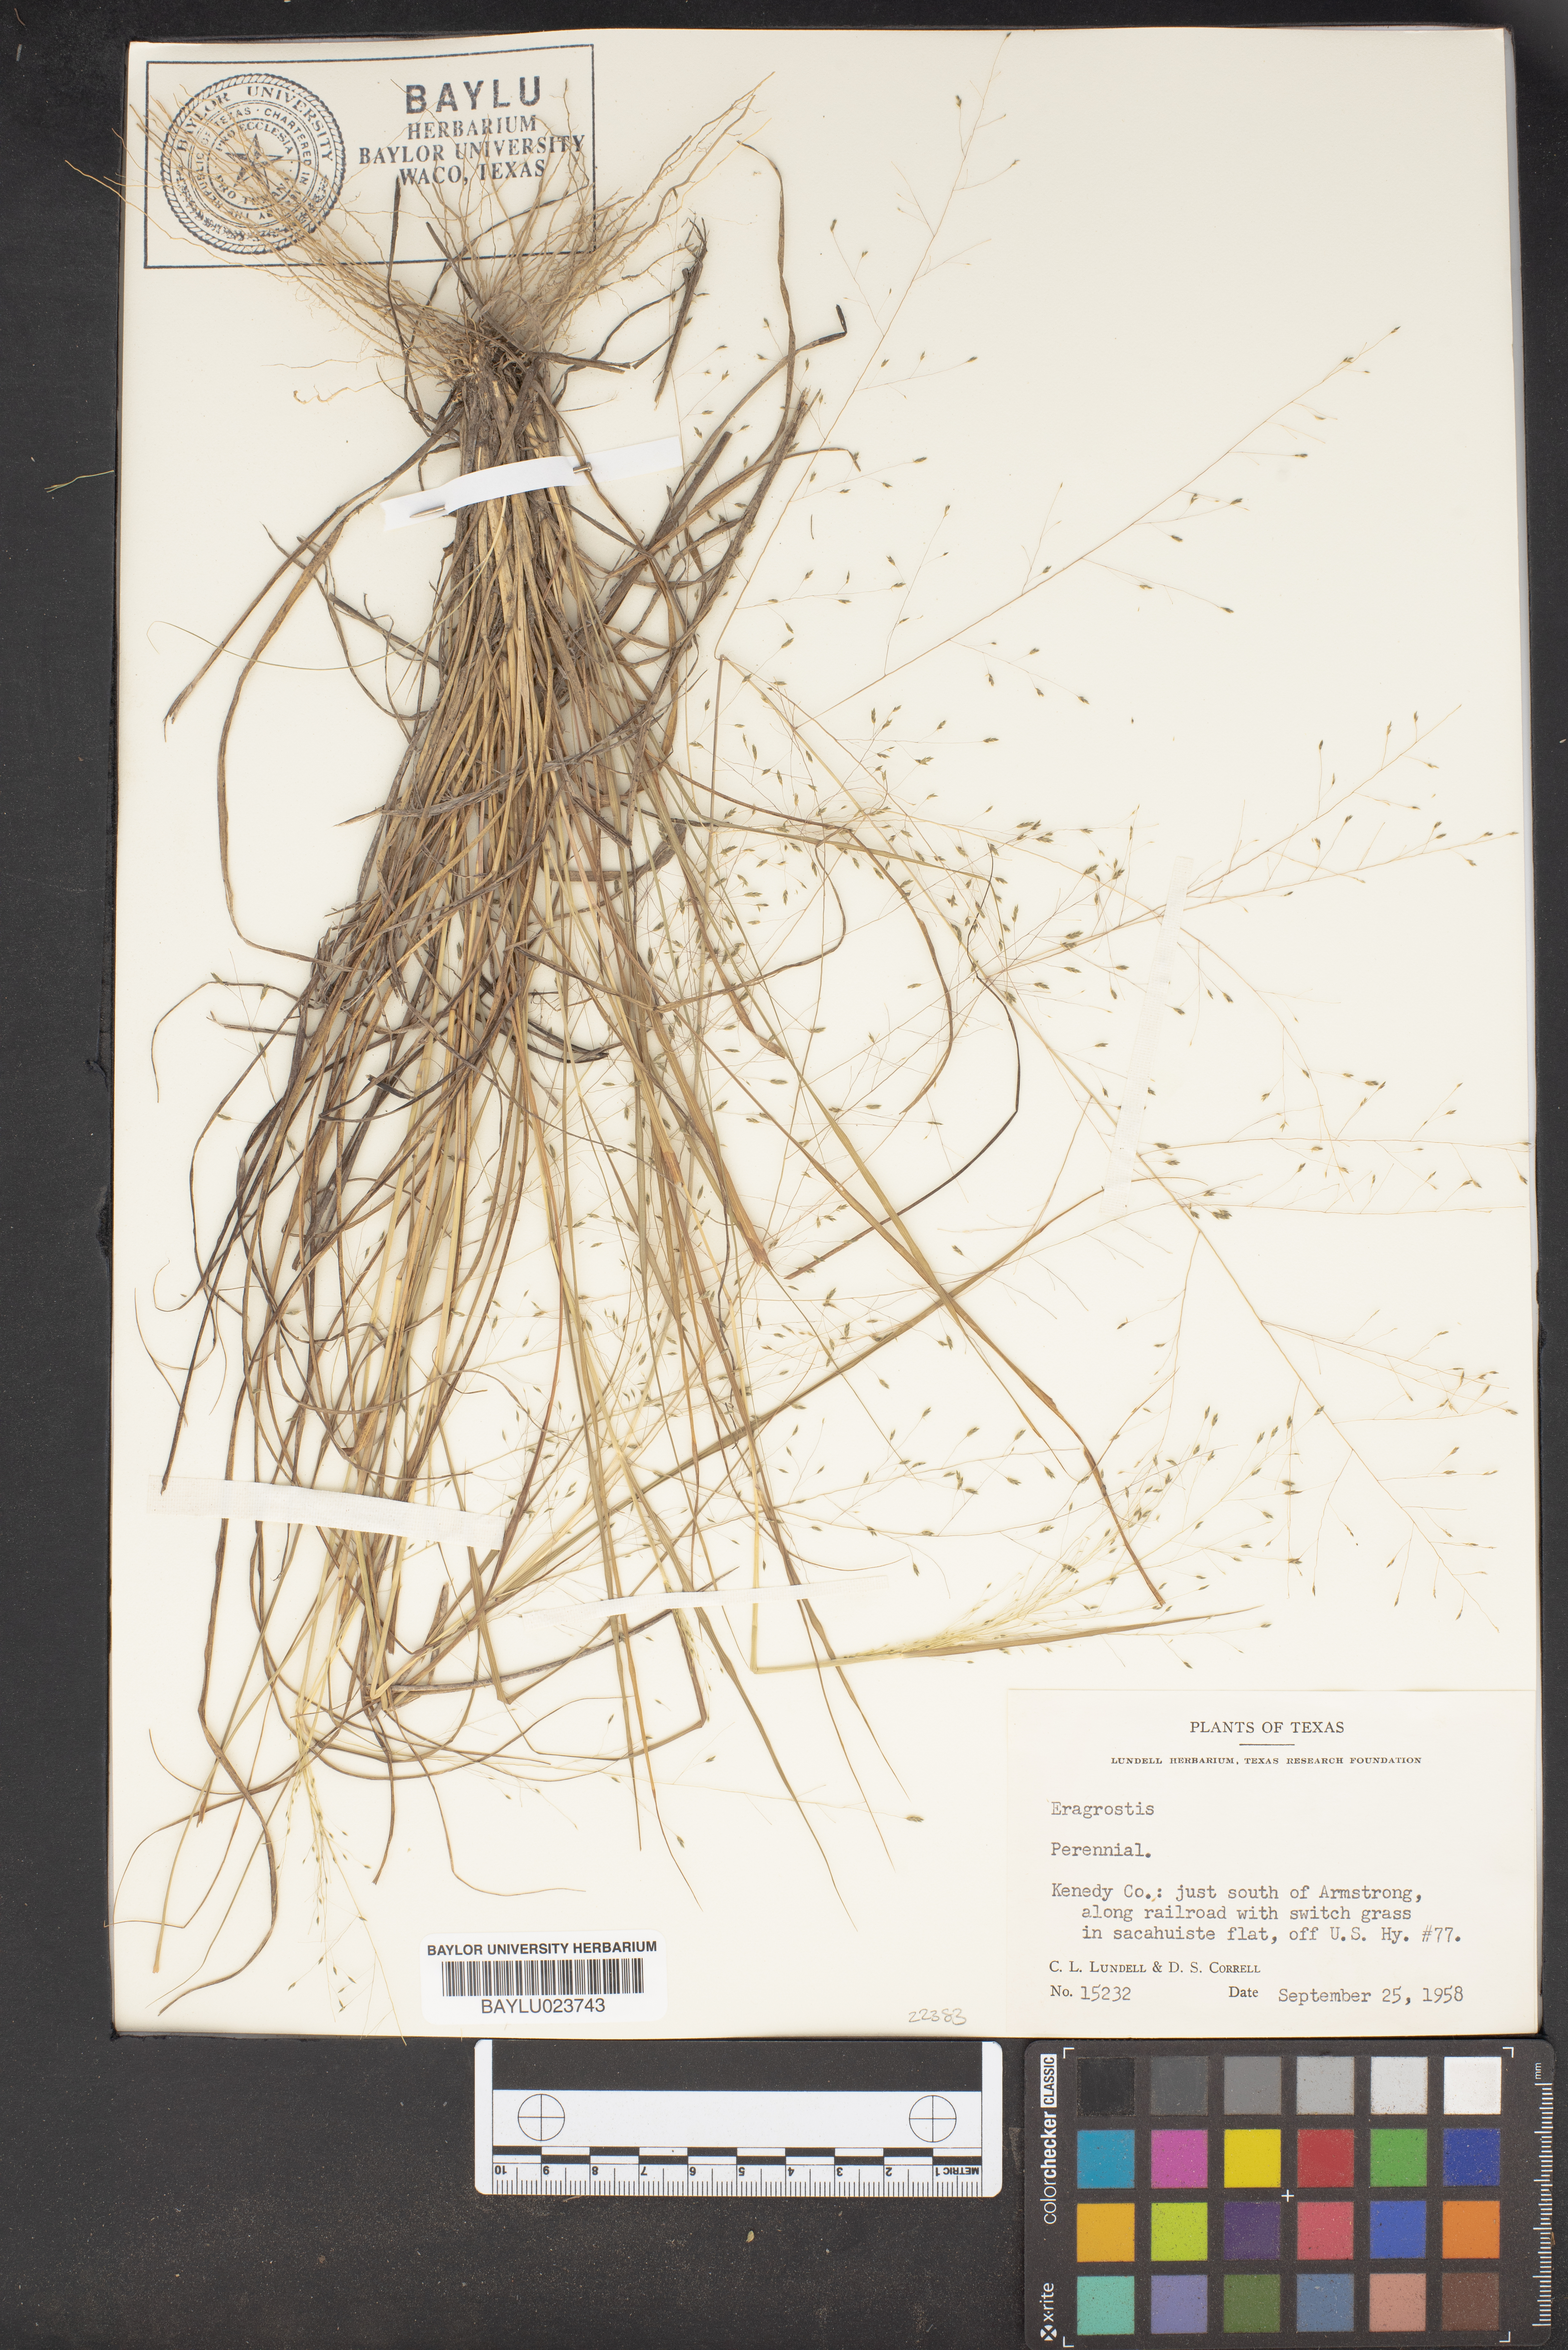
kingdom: Plantae
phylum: Tracheophyta
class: Liliopsida
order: Poales
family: Poaceae
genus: Eragrostis
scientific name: Eragrostis
